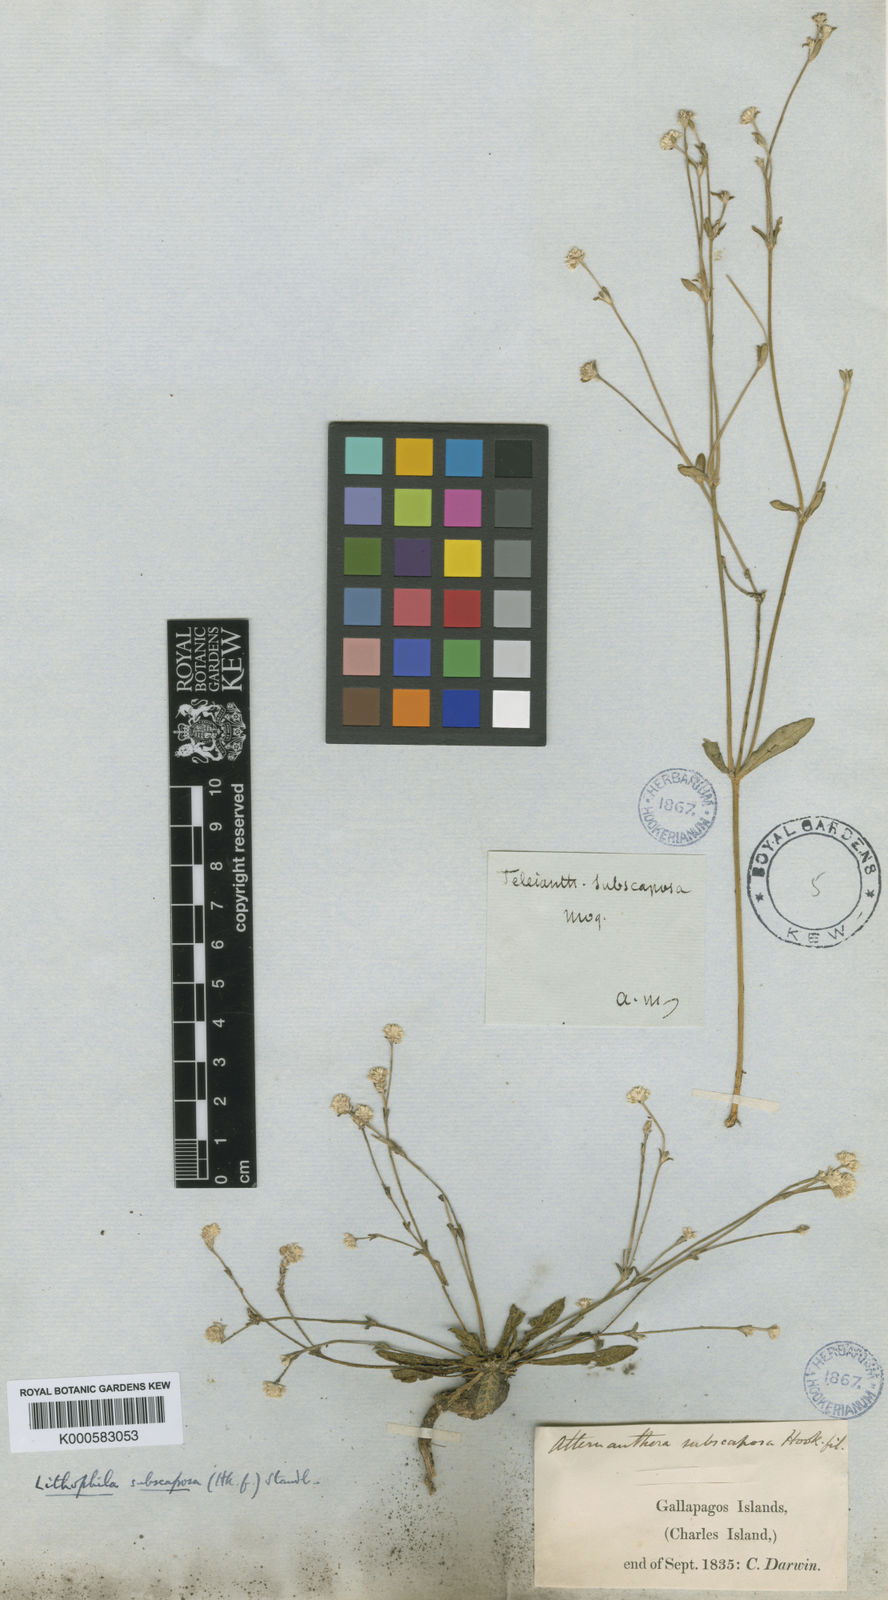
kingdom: Plantae
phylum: Tracheophyta
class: Magnoliopsida
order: Caryophyllales
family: Amaranthaceae
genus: Gomphrena
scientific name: Gomphrena subscaposa
